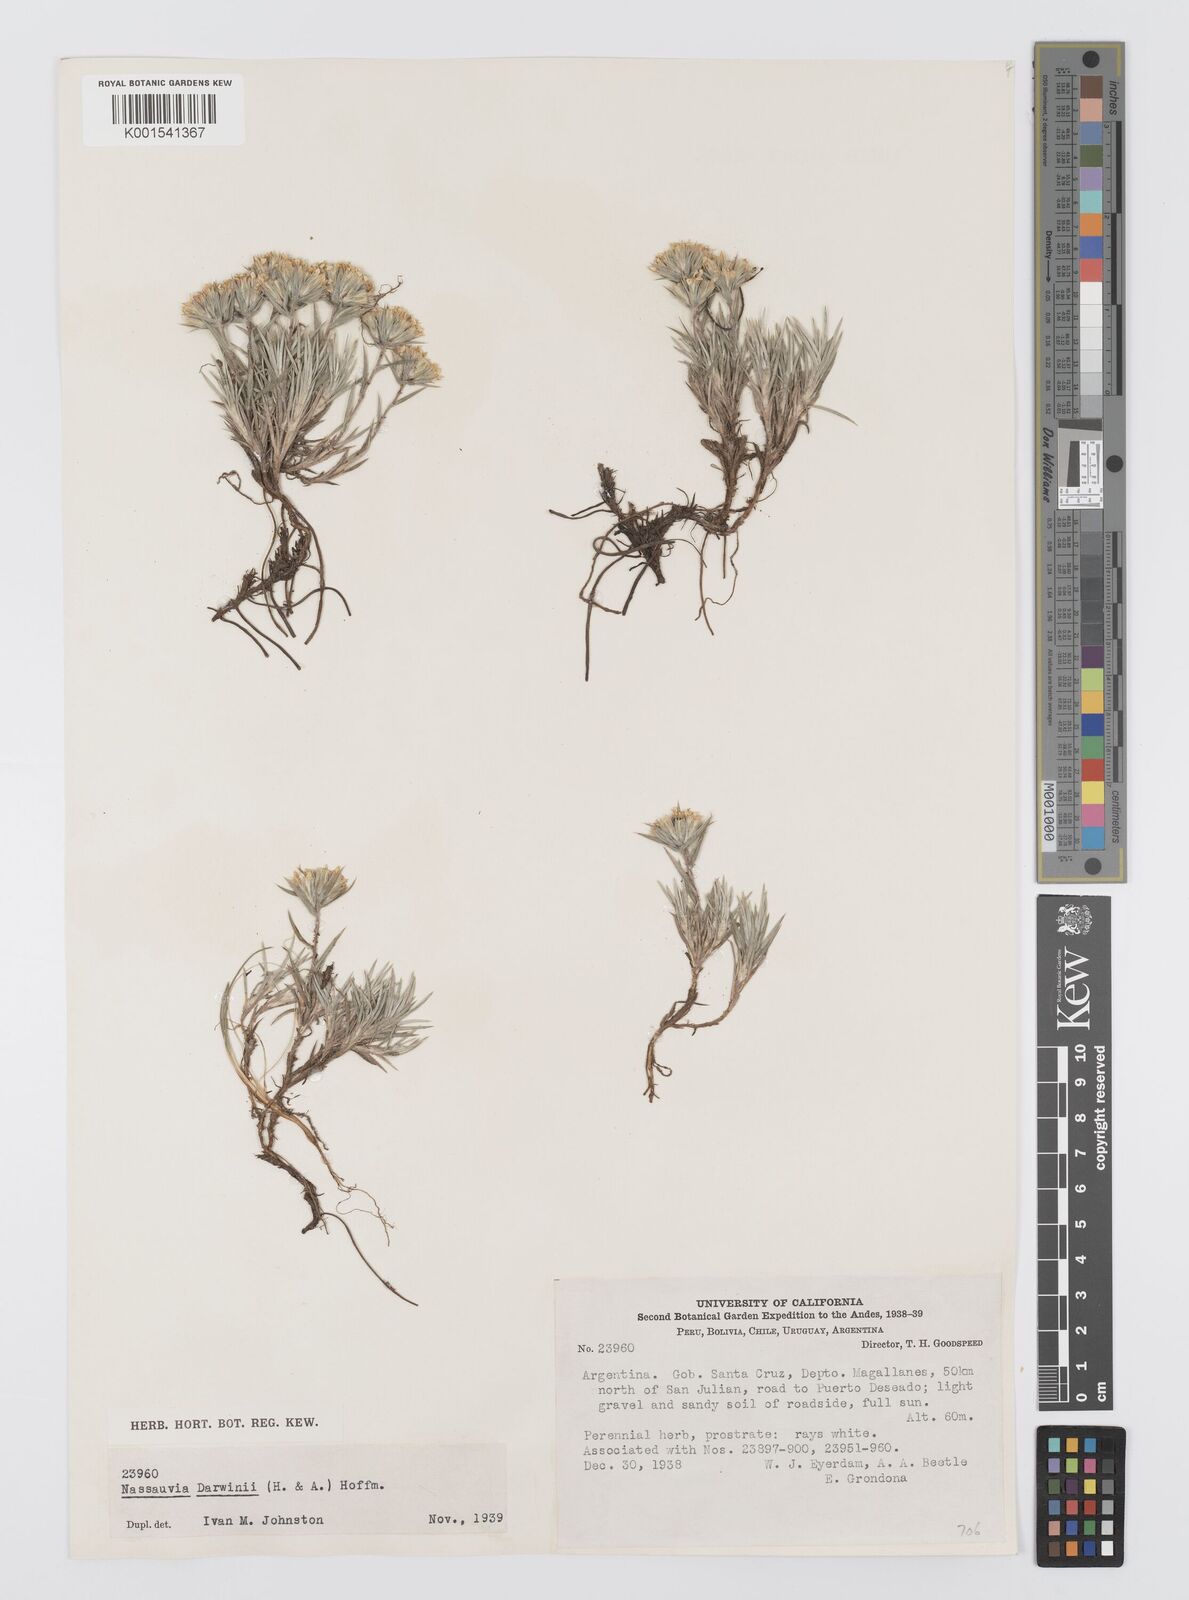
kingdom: Plantae
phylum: Tracheophyta
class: Magnoliopsida
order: Asterales
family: Asteraceae
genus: Nassauvia
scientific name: Nassauvia darwinii
